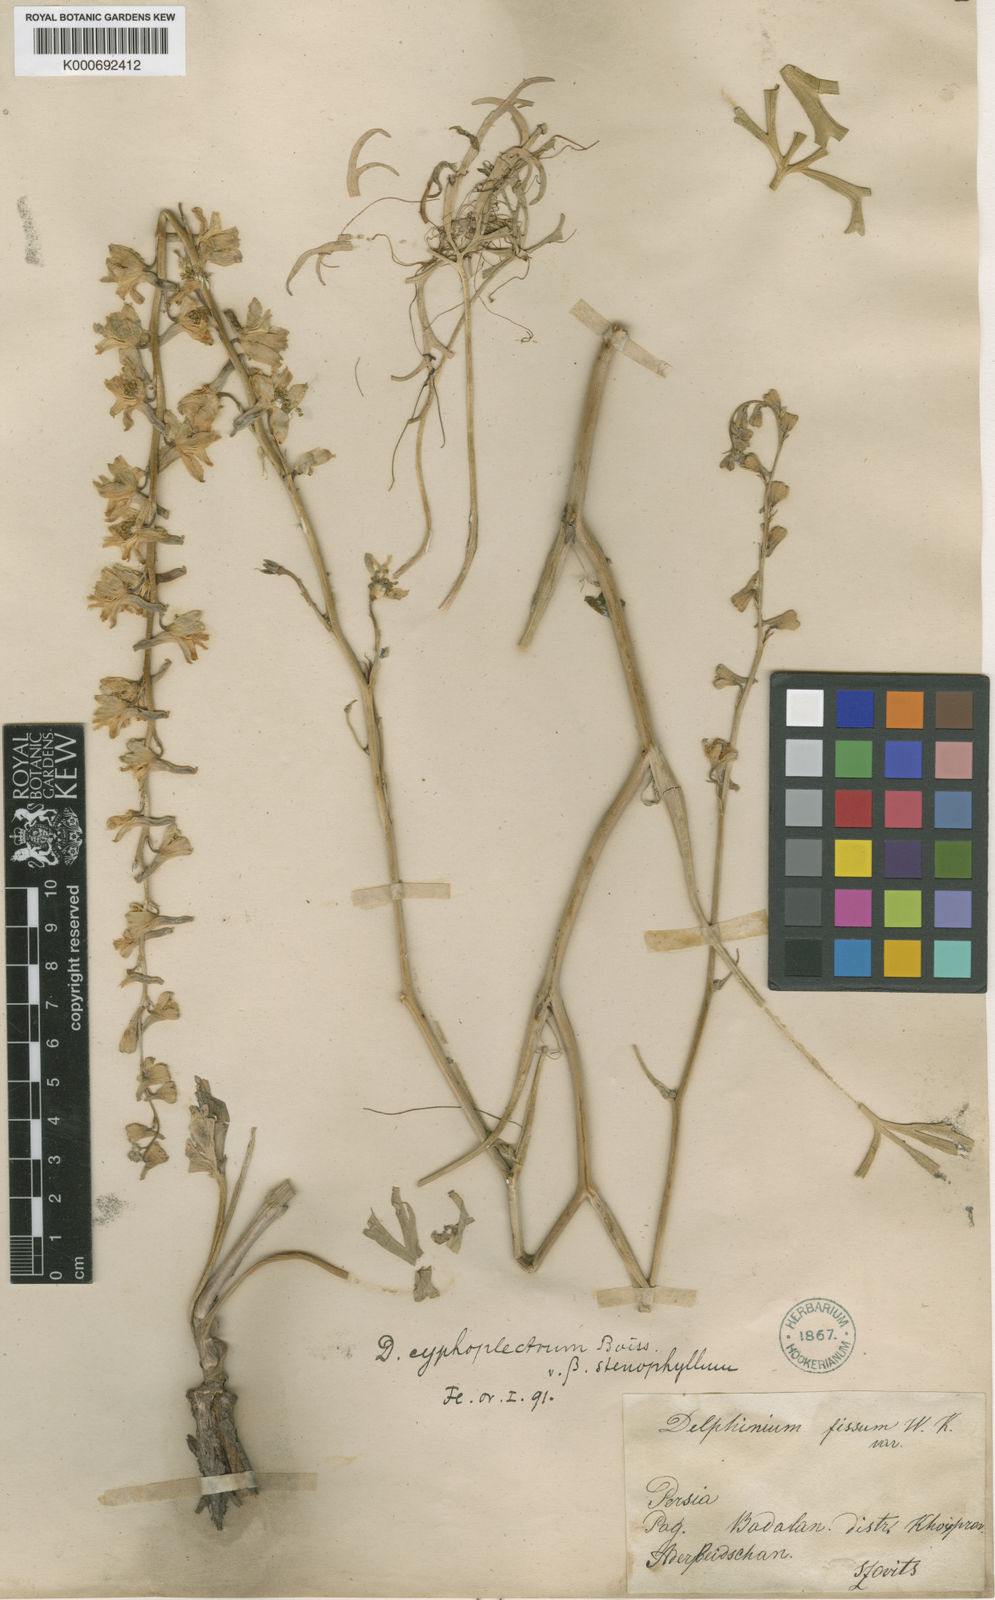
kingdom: Plantae
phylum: Tracheophyta
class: Magnoliopsida
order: Ranunculales
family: Ranunculaceae
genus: Delphinium
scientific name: Delphinium cyphoplectrum
